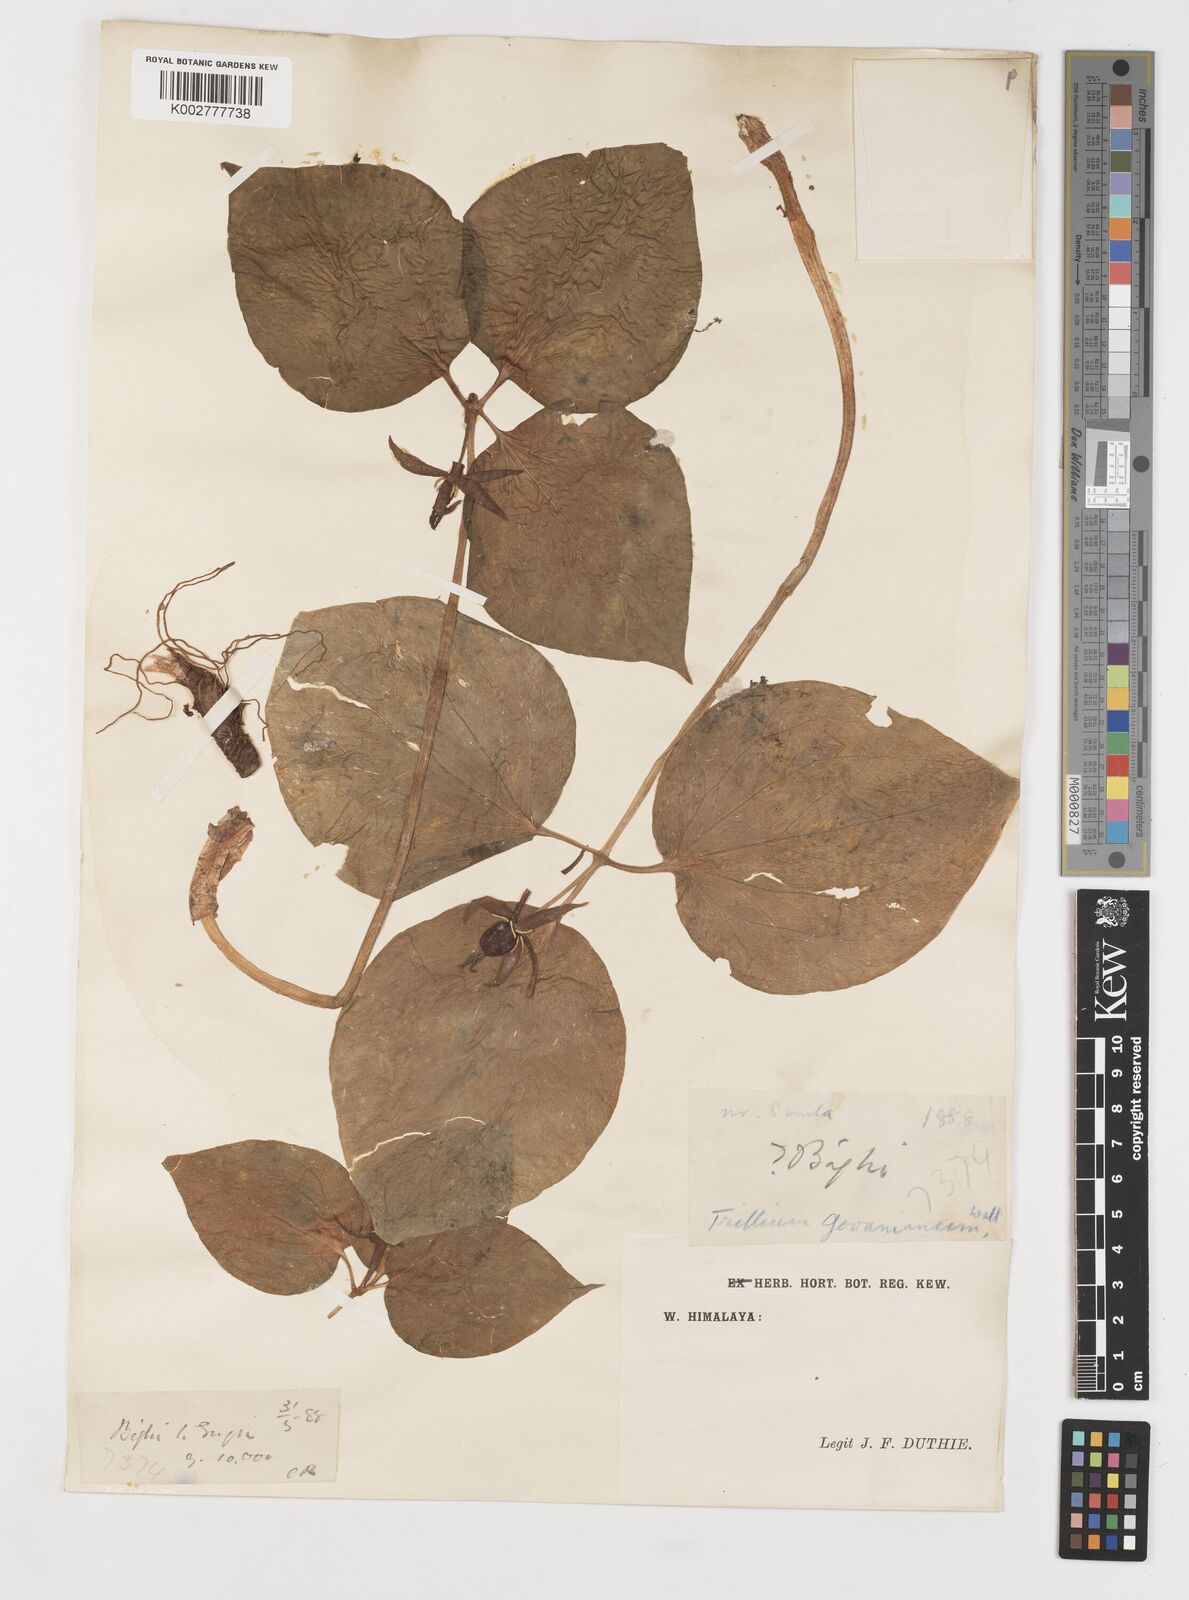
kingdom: Plantae
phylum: Tracheophyta
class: Liliopsida
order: Liliales
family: Melanthiaceae
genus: Trillium
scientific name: Trillium govanianum
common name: Himalayan trillium
